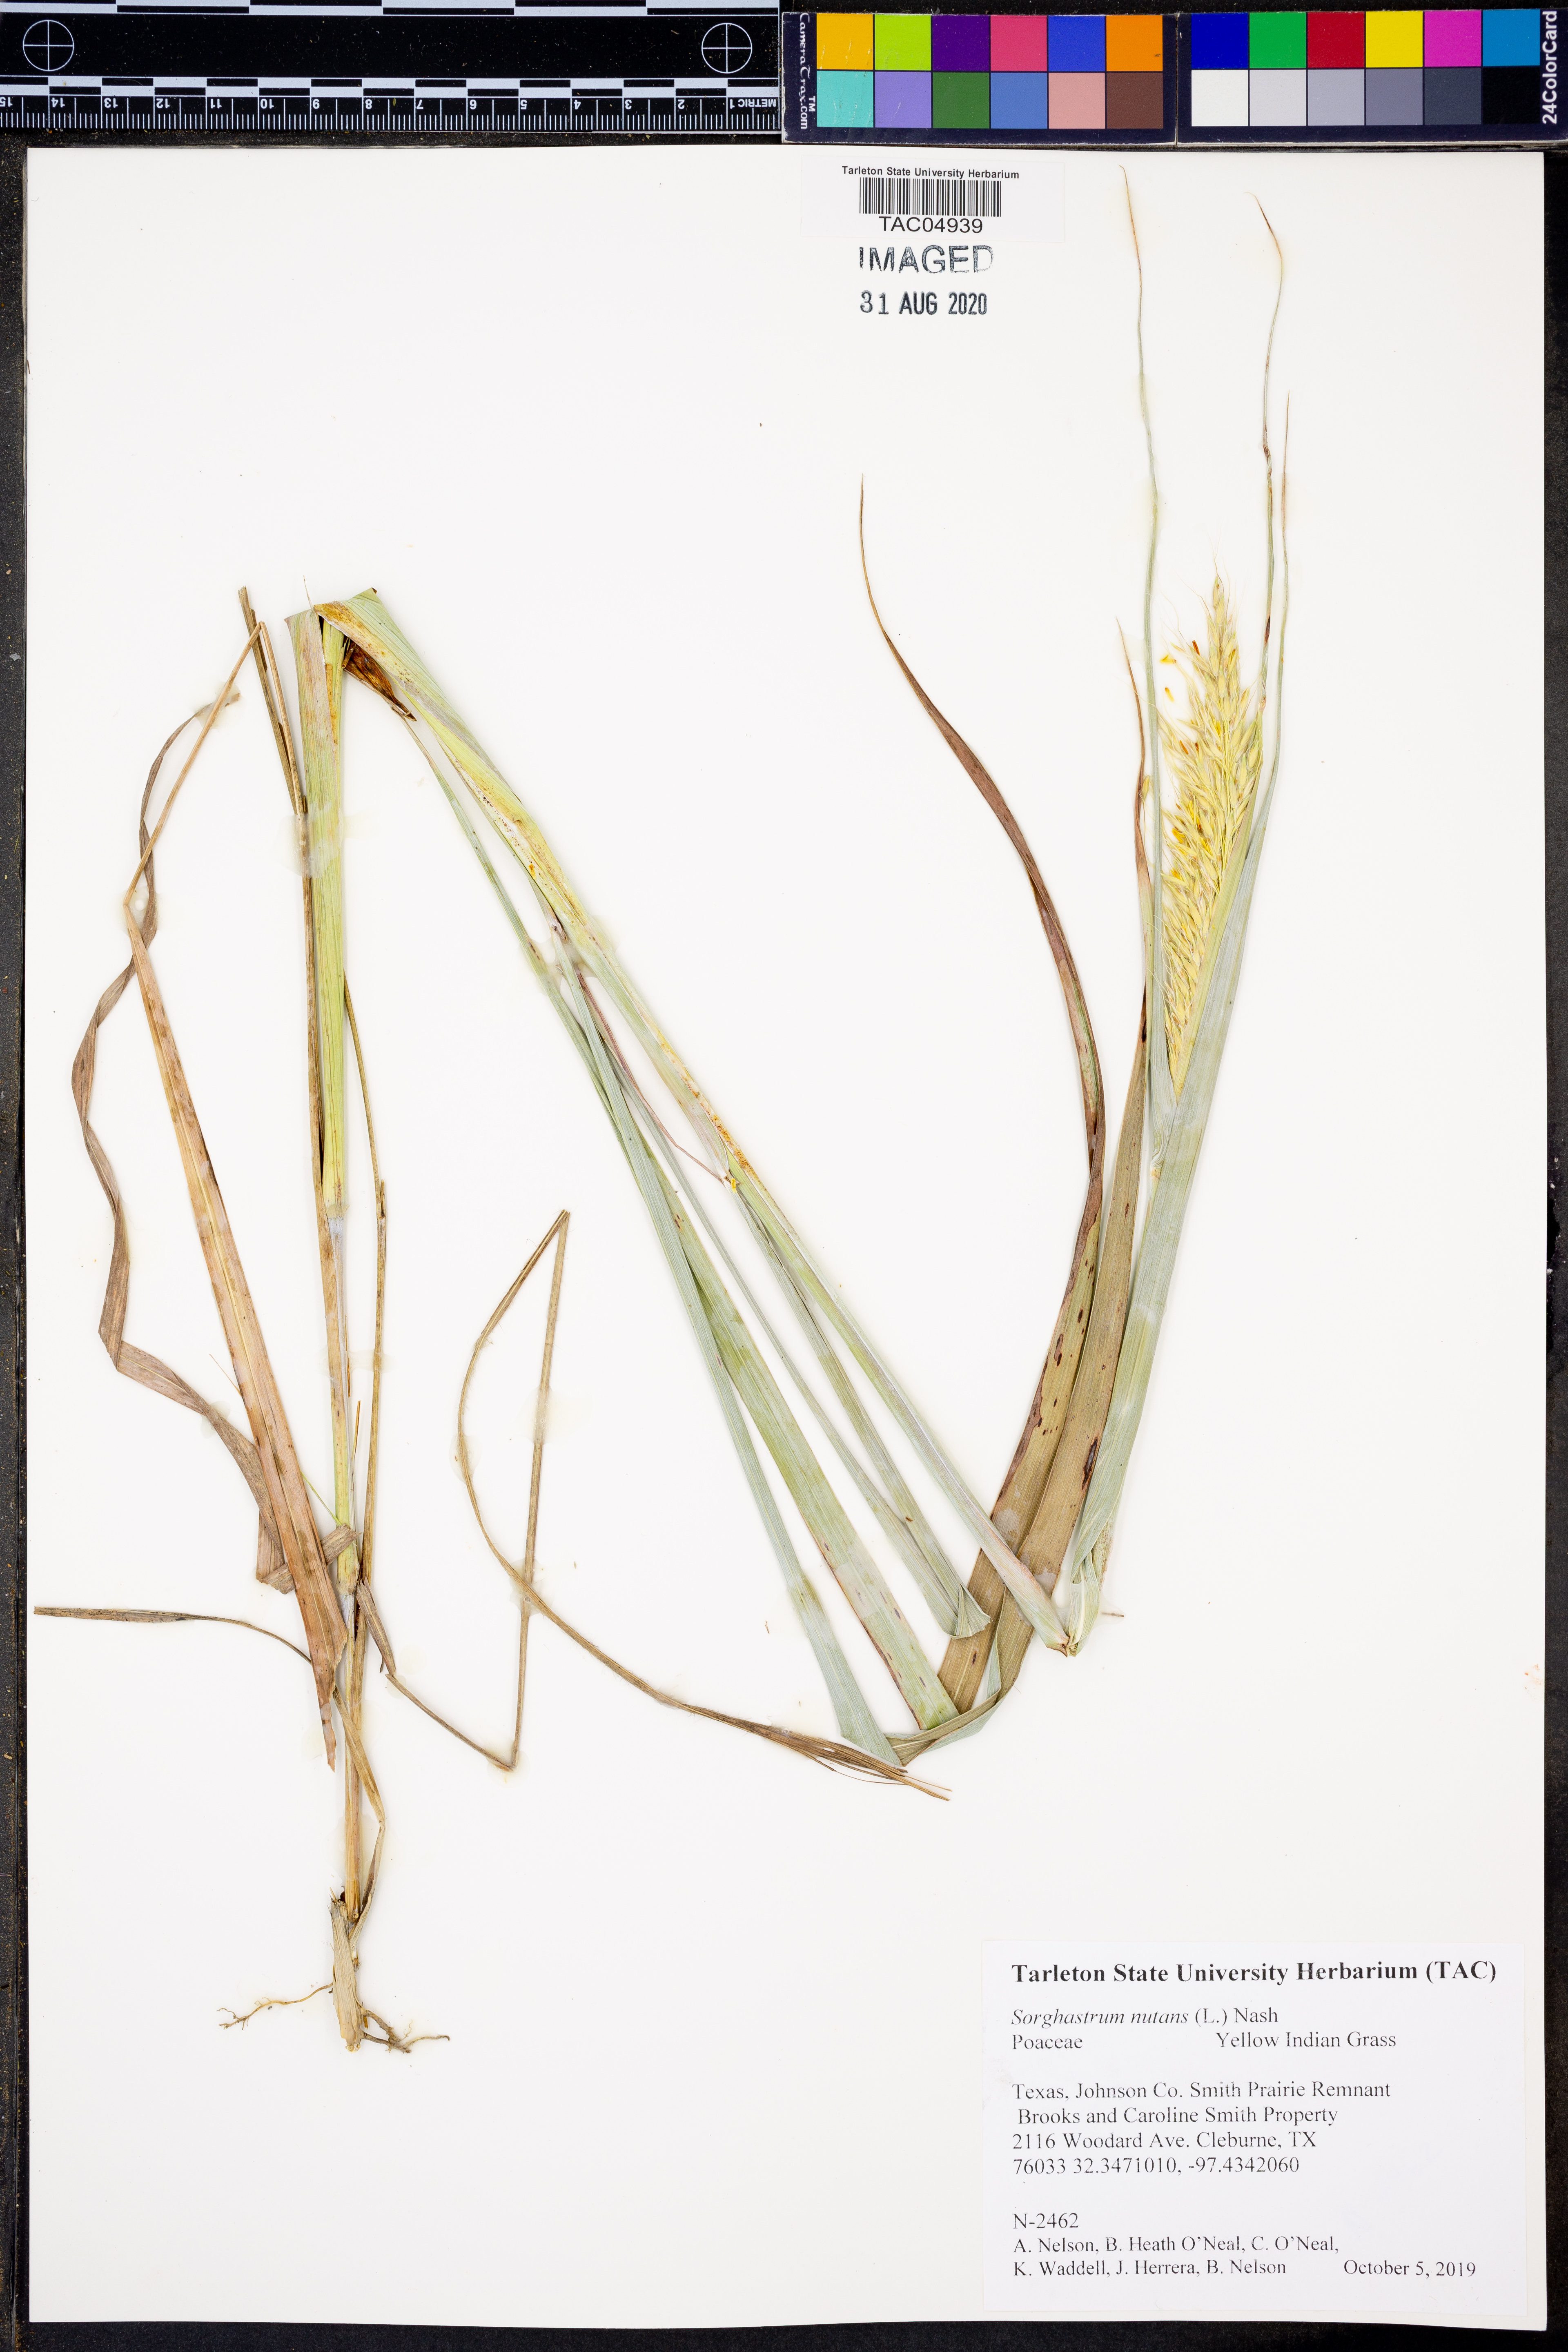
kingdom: Plantae
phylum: Tracheophyta
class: Liliopsida
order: Poales
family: Poaceae
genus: Sorghastrum
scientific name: Sorghastrum nutans
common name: Indian grass
